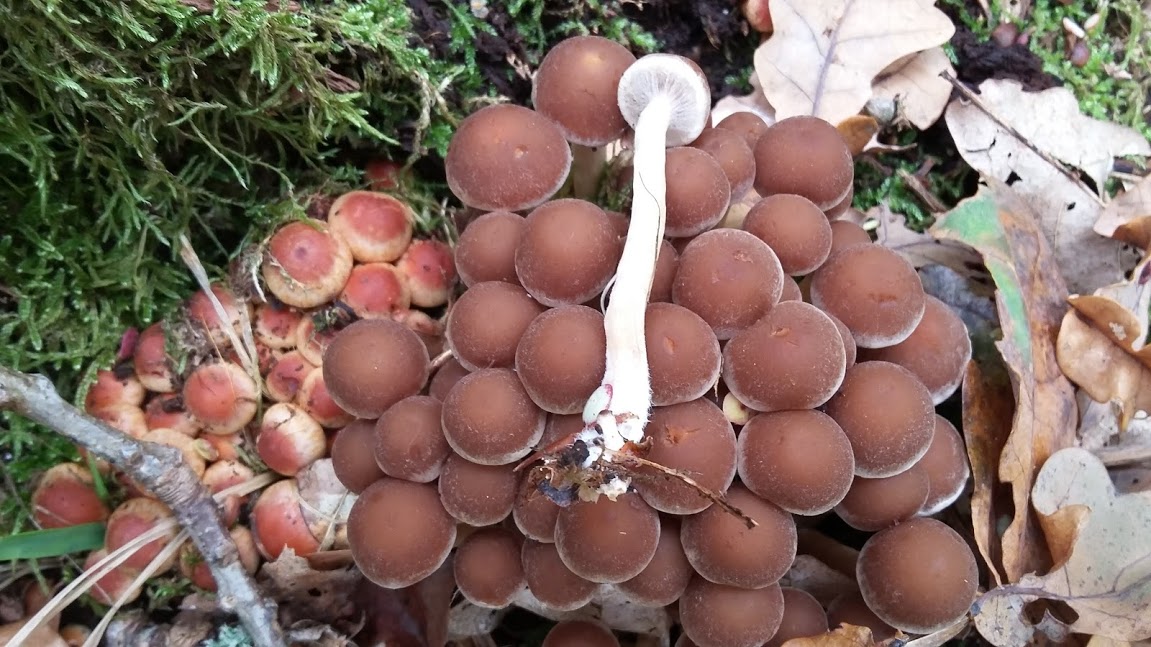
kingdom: Fungi
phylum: Basidiomycota
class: Agaricomycetes
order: Agaricales
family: Psathyrellaceae
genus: Psathyrella
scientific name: Psathyrella piluliformis
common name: lysstokket mørkhat
